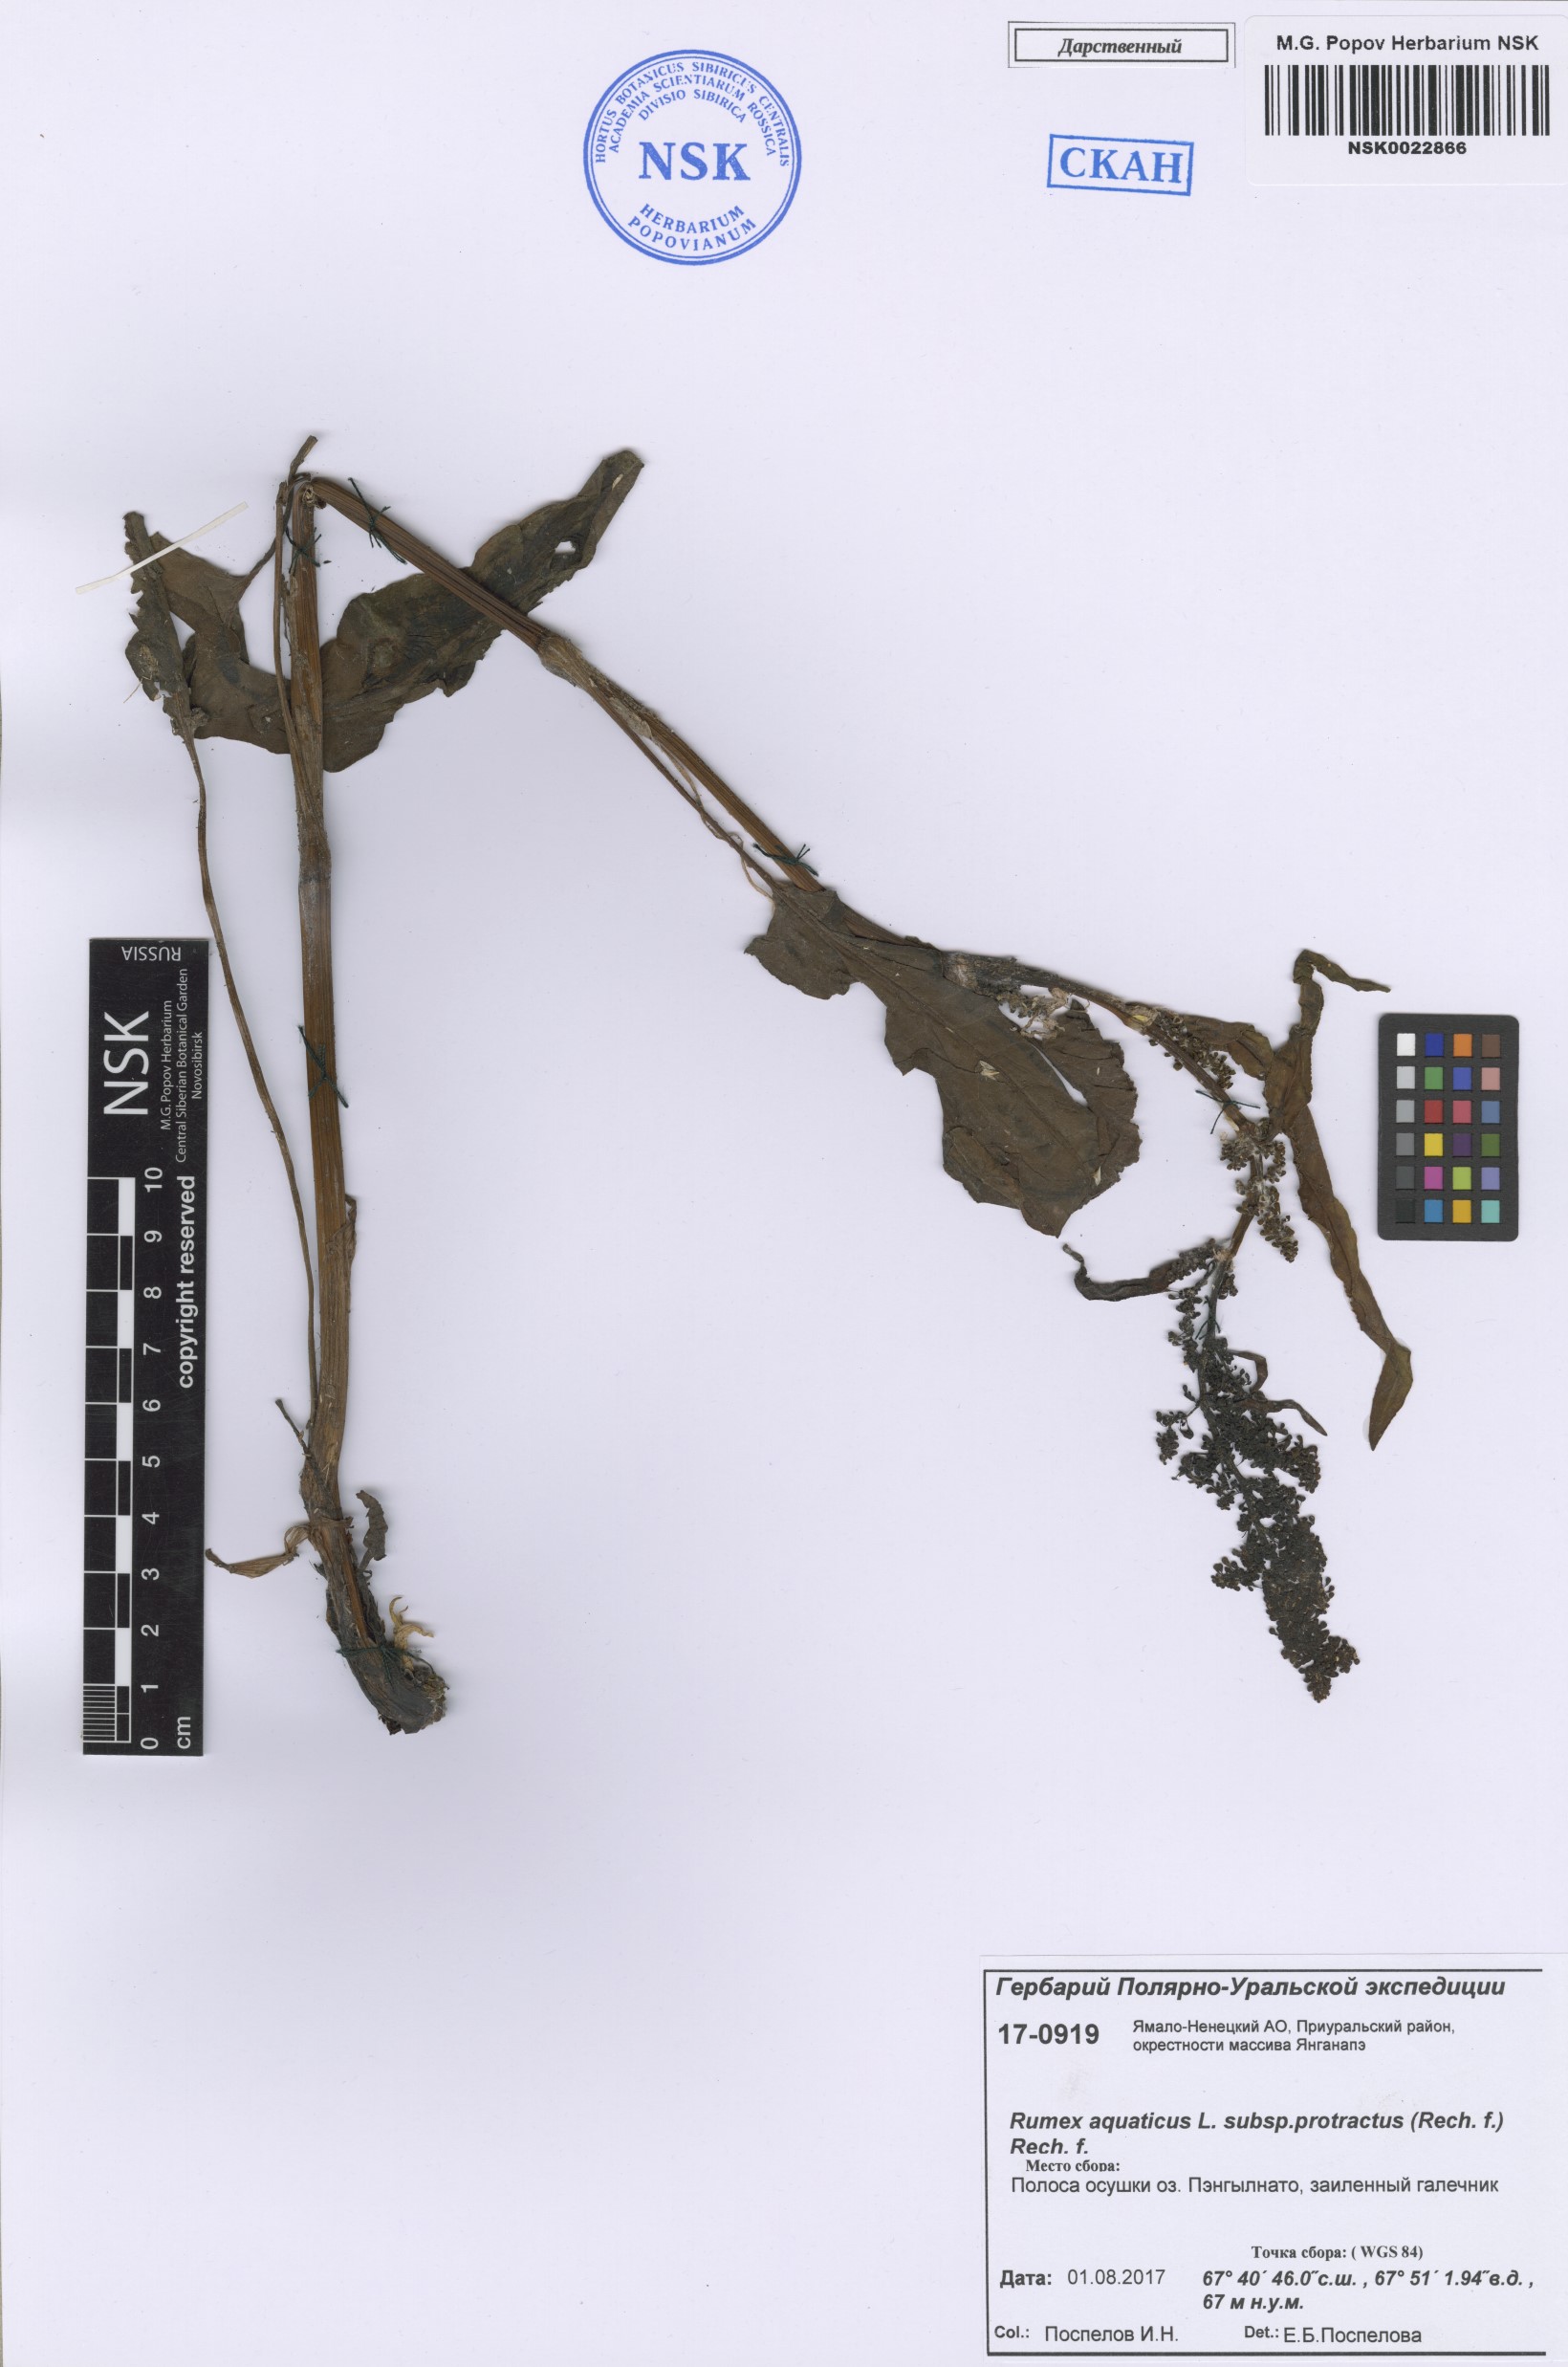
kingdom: Plantae
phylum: Tracheophyta
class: Magnoliopsida
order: Caryophyllales
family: Polygonaceae
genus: Rumex
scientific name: Rumex aquaticus
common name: Scottish dock
